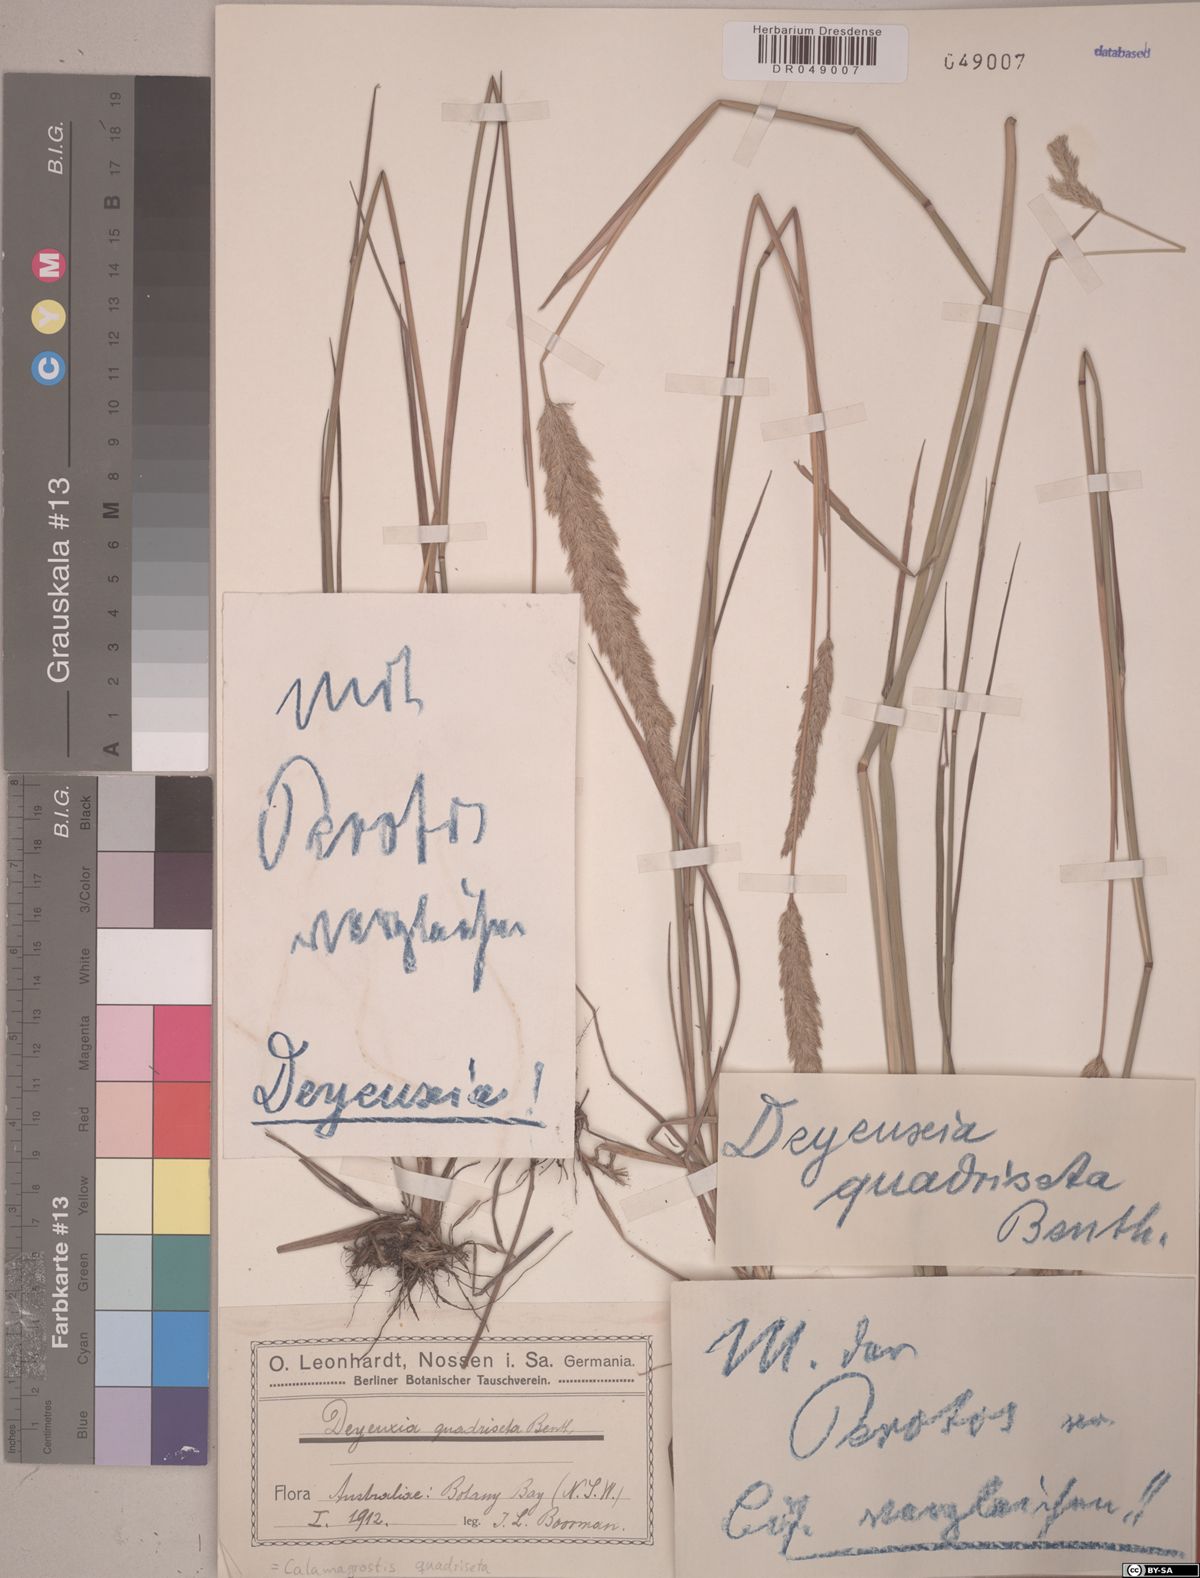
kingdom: Plantae
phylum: Tracheophyta
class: Liliopsida
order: Poales
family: Poaceae
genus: Calamagrostis
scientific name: Calamagrostis quadriseta
